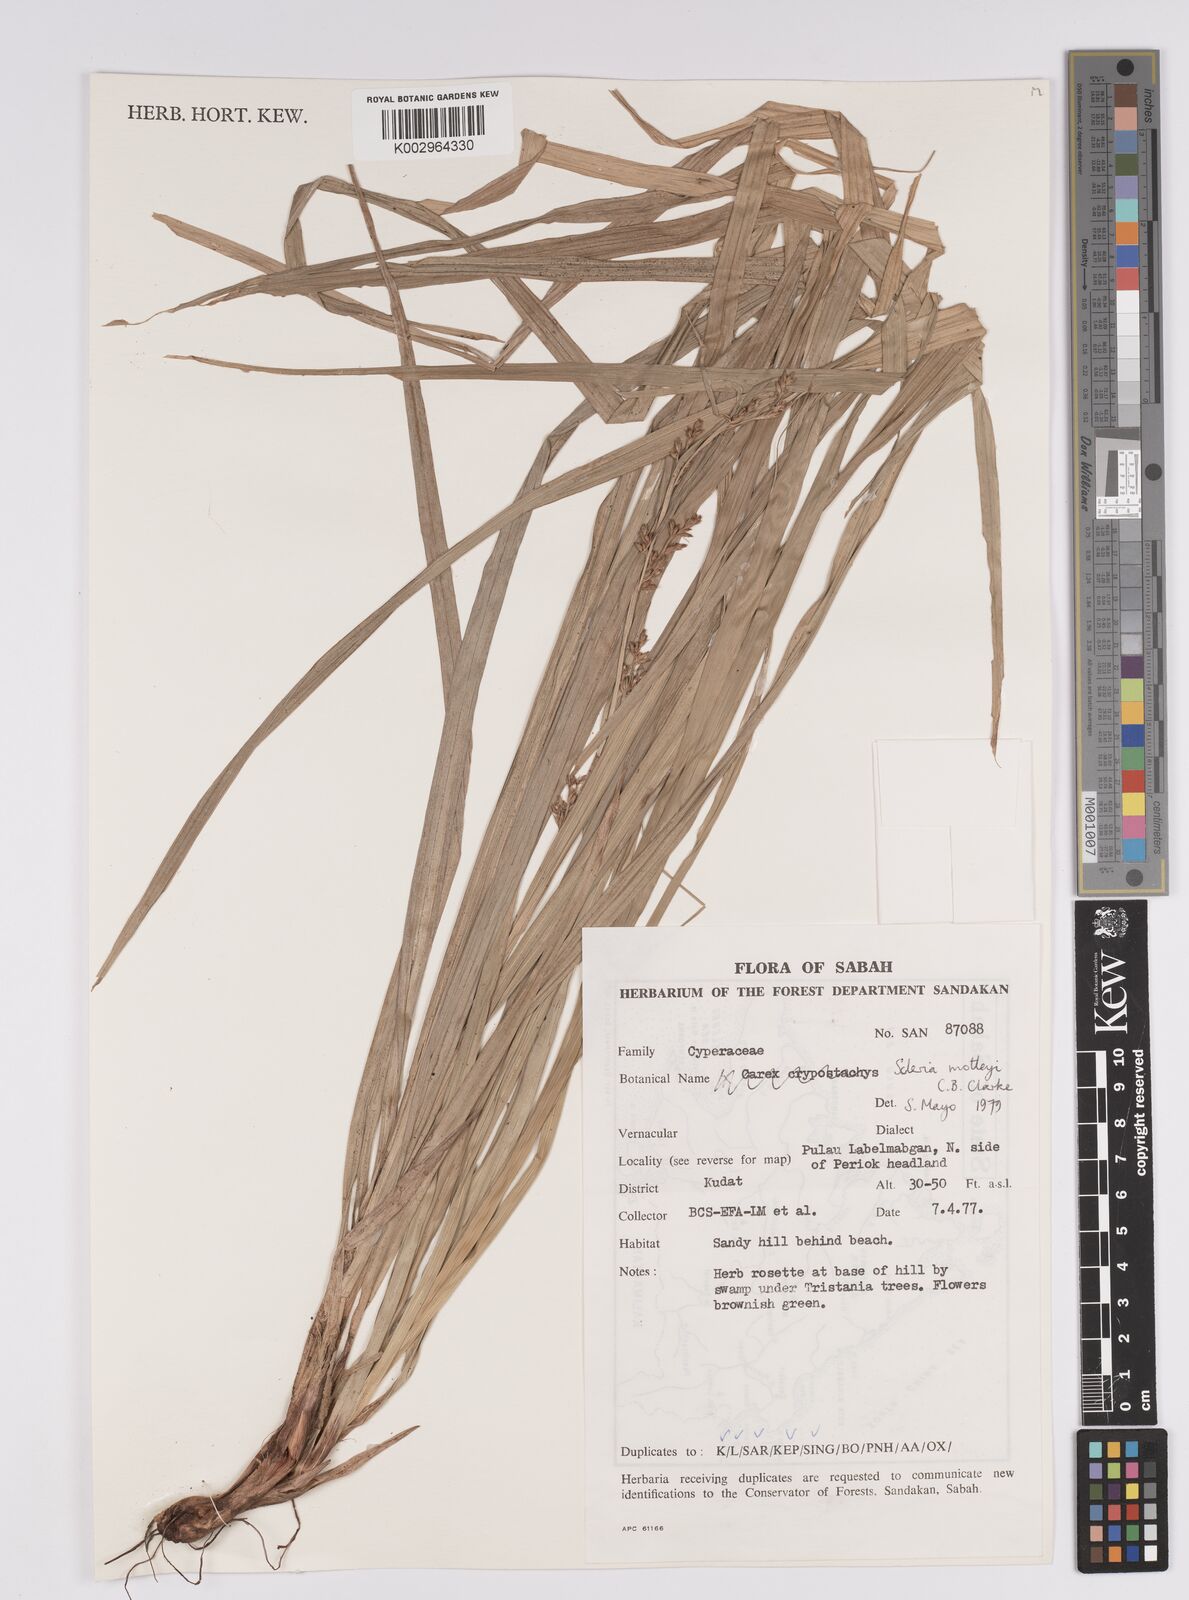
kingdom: Plantae
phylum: Tracheophyta
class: Liliopsida
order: Poales
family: Cyperaceae
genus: Scleria
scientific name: Scleria motleyi
